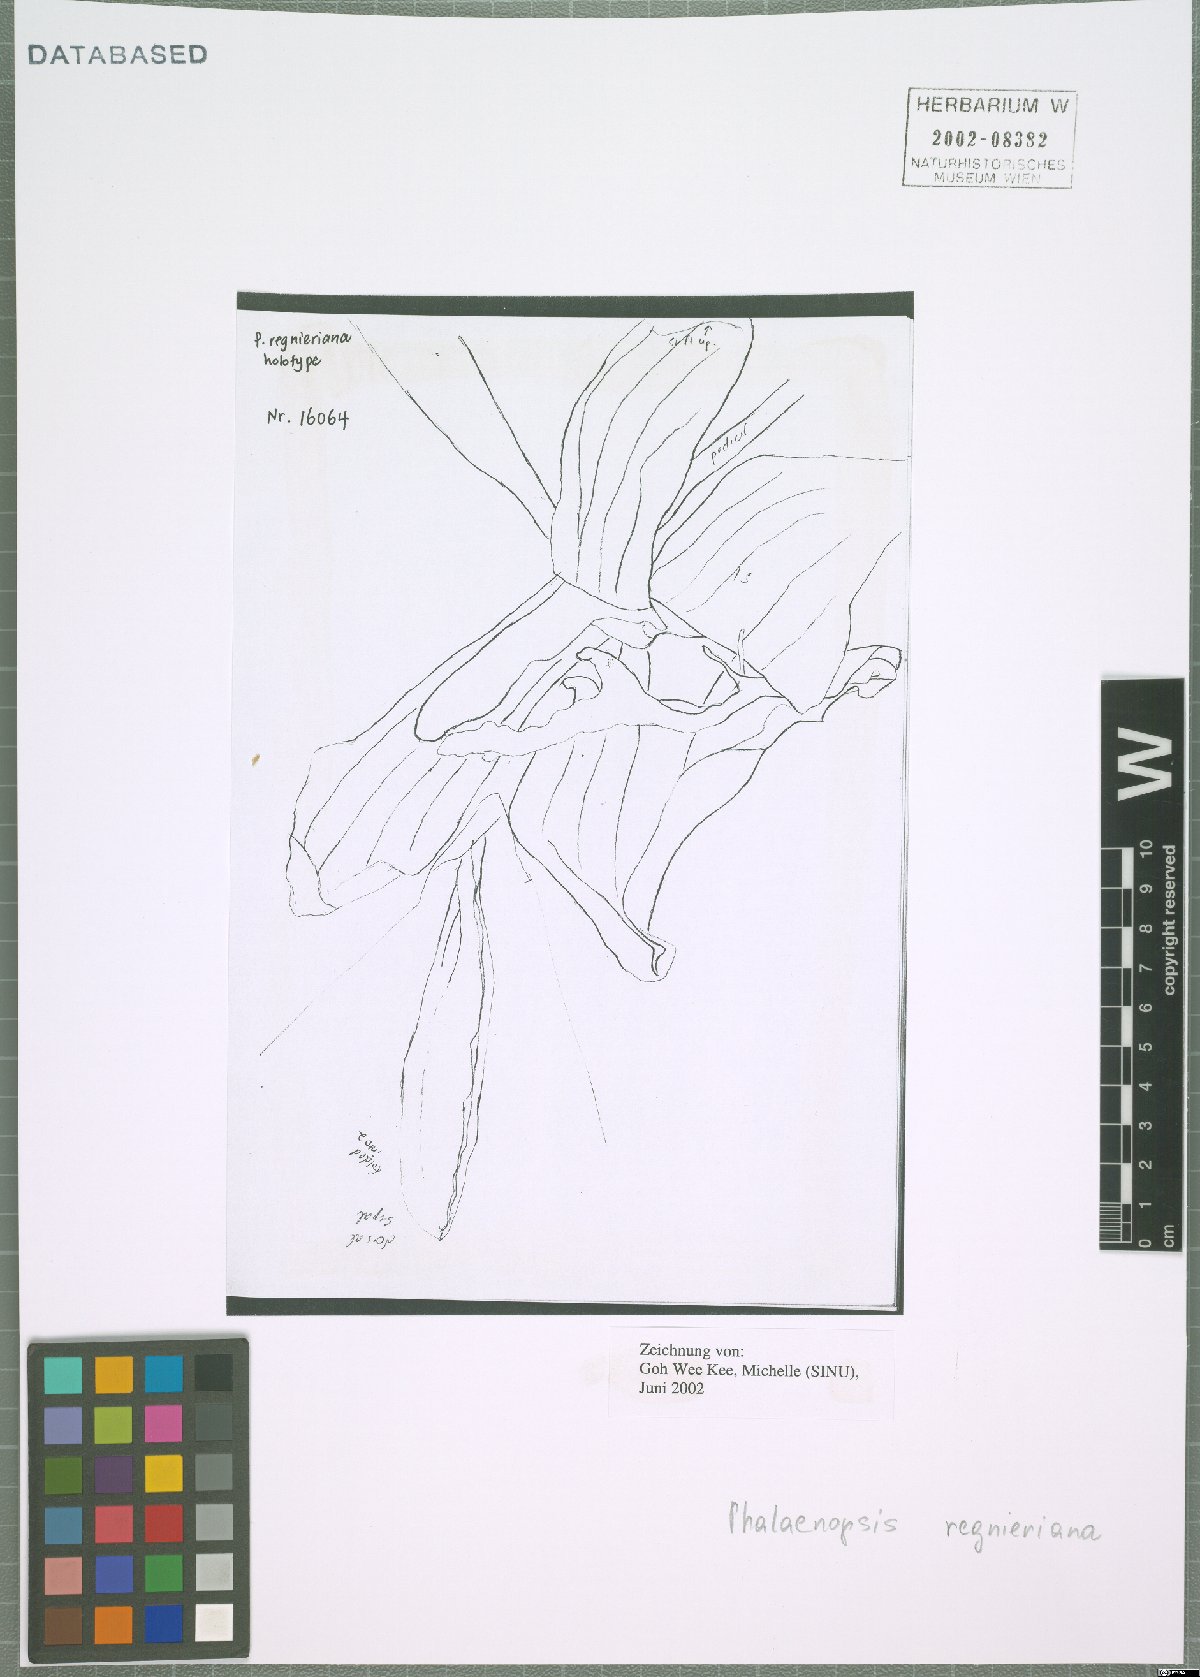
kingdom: Plantae
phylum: Tracheophyta
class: Liliopsida
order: Asparagales
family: Orchidaceae
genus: Phalaenopsis
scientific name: Phalaenopsis regnieriana
